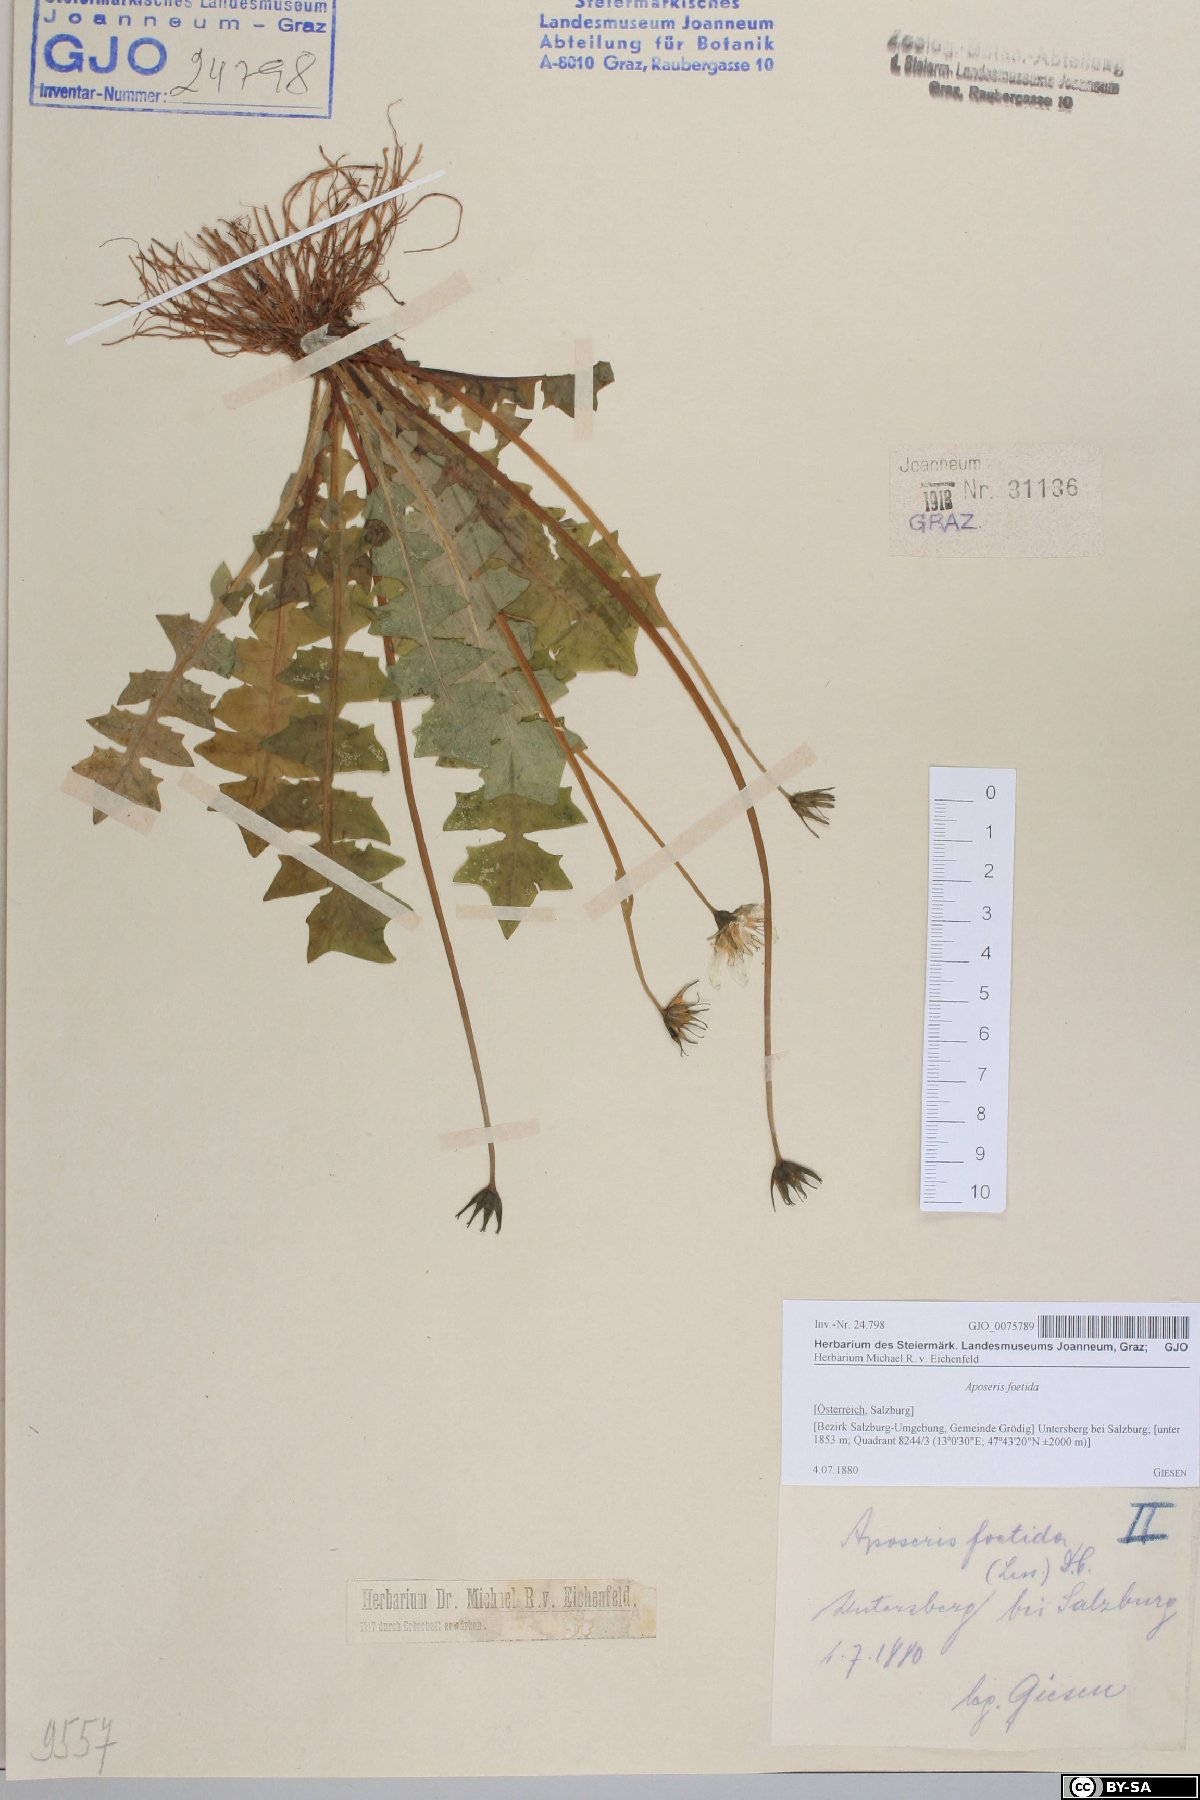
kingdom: Plantae
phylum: Tracheophyta
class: Magnoliopsida
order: Asterales
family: Asteraceae
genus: Aposeris
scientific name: Aposeris foetida
